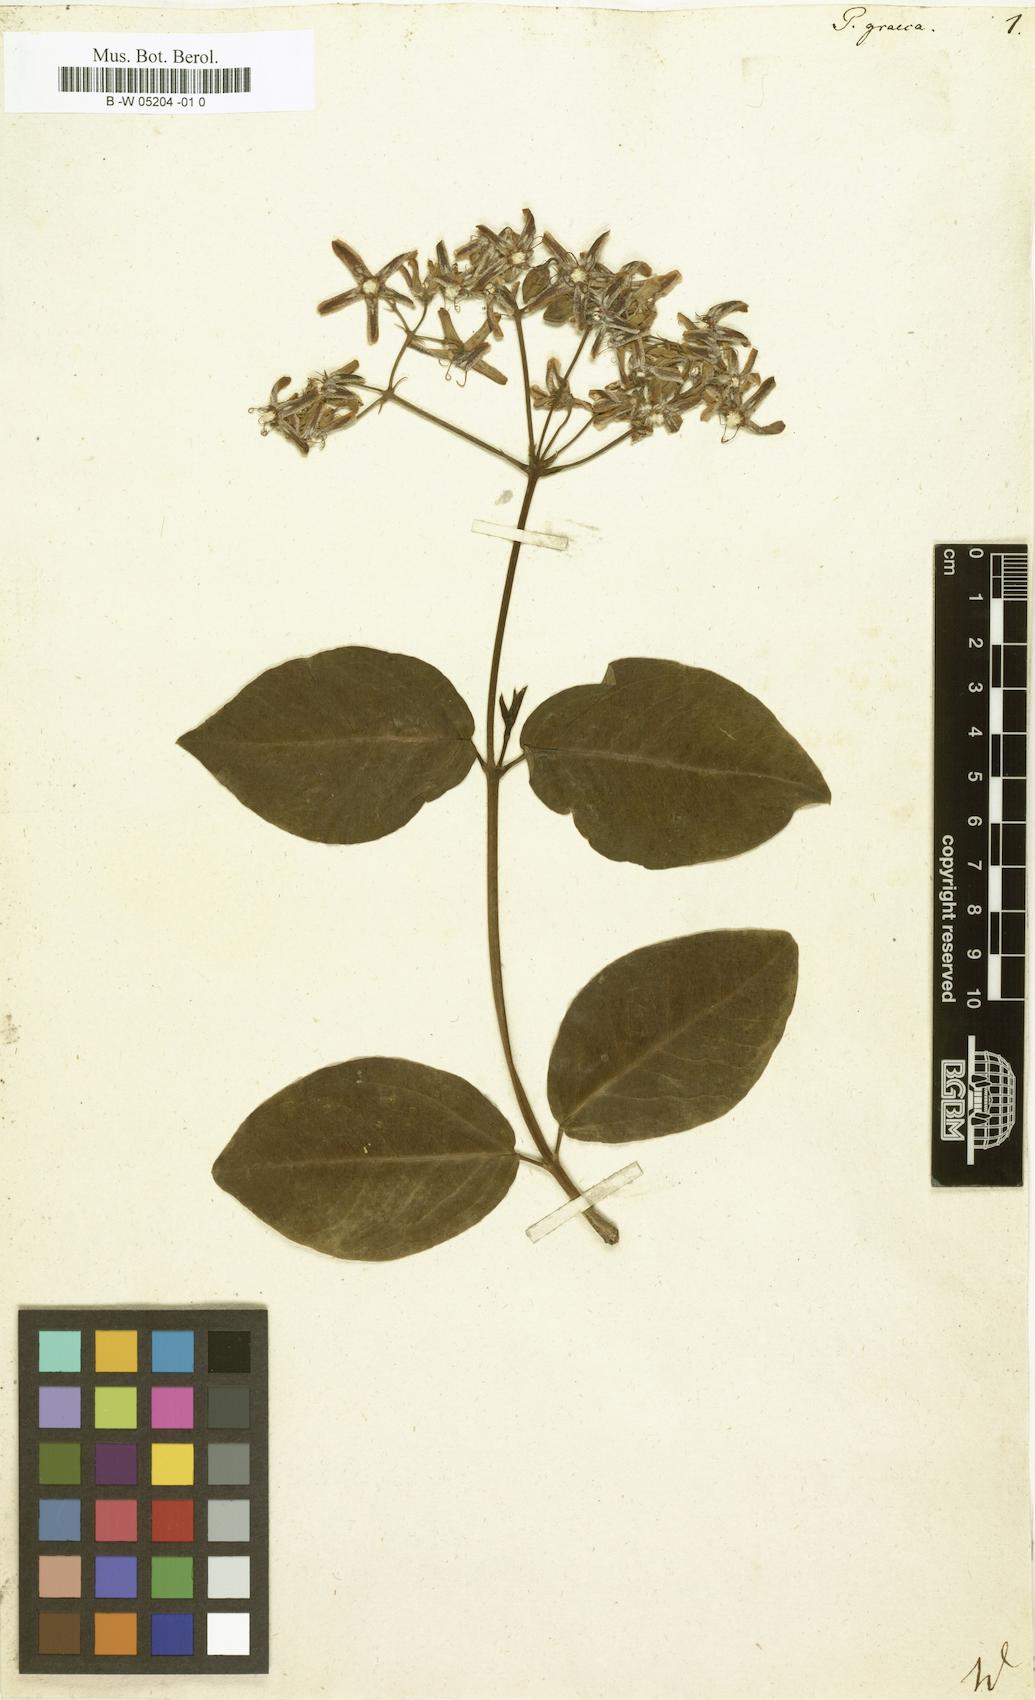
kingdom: Plantae
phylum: Tracheophyta
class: Magnoliopsida
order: Gentianales
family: Apocynaceae
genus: Periploca
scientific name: Periploca graeca
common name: Silkvine
